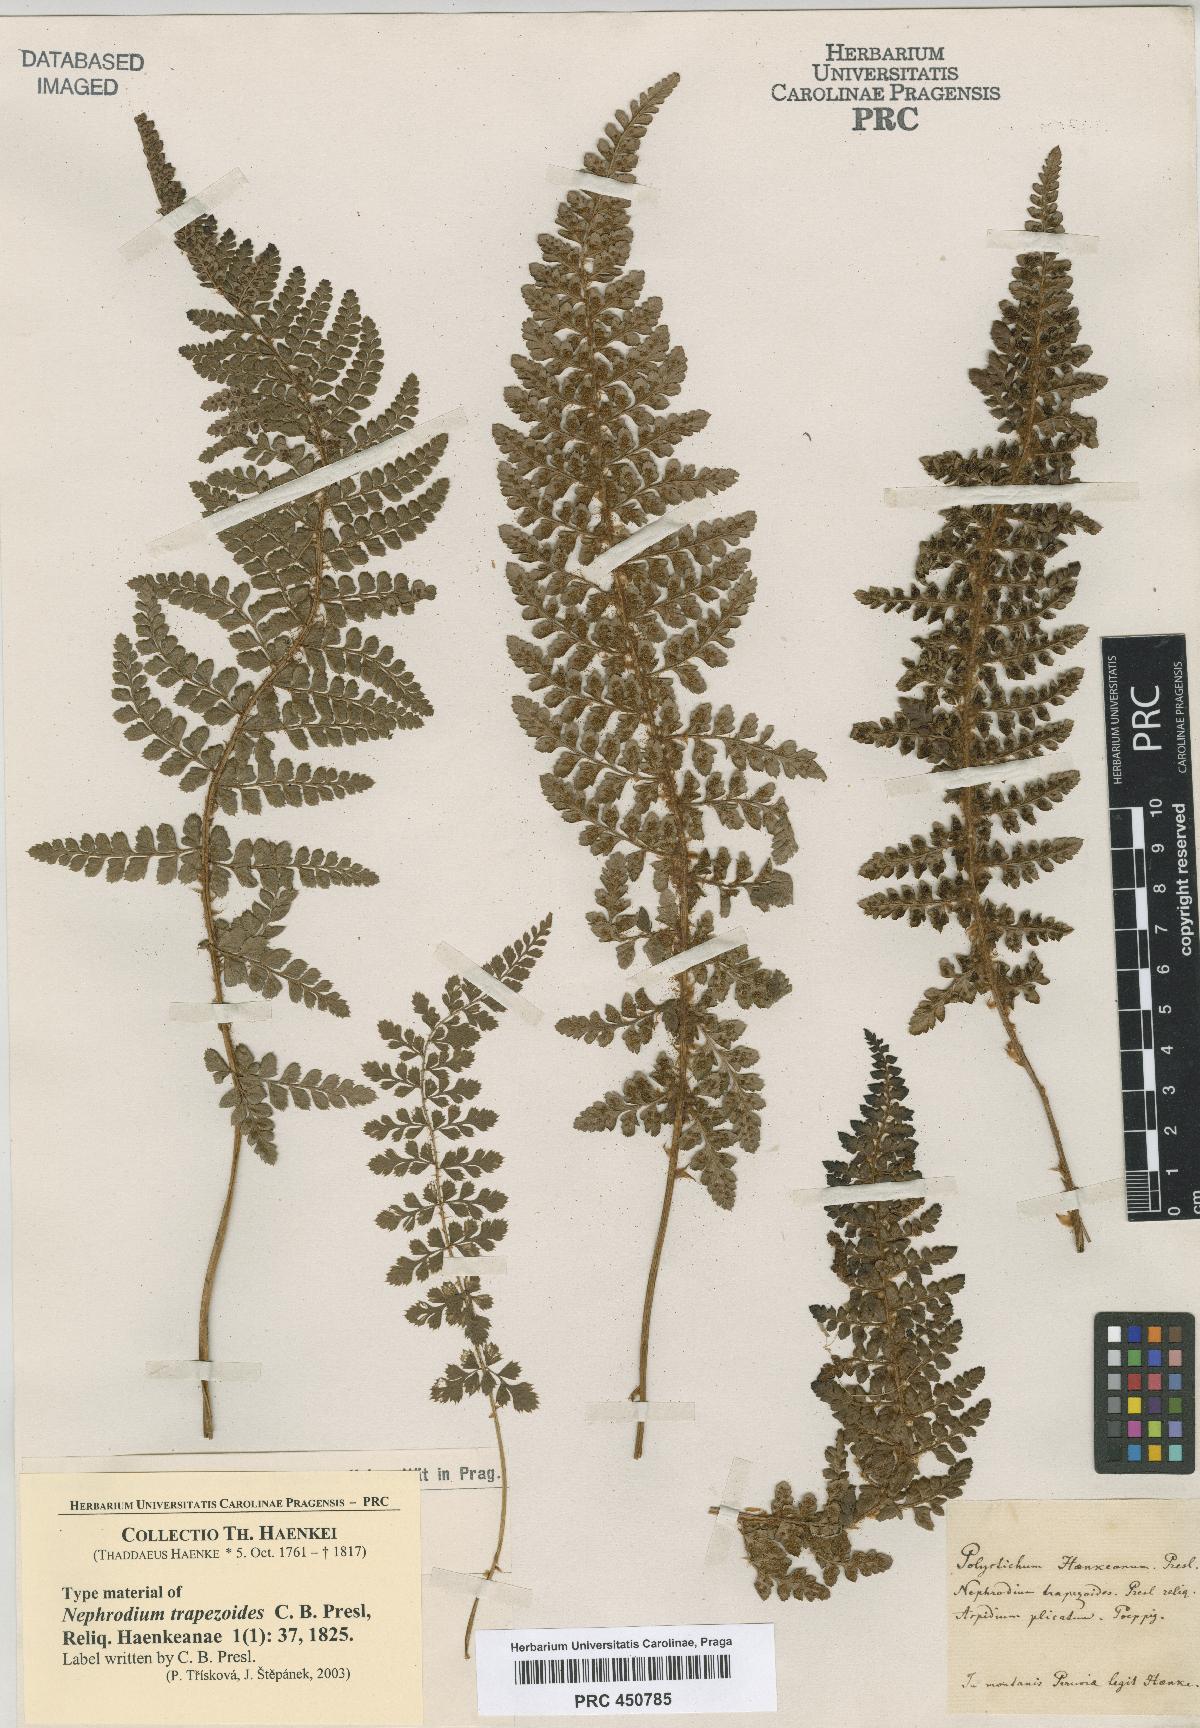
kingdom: Plantae
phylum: Tracheophyta
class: Polypodiopsida
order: Polypodiales
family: Dryopteridaceae
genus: Polystichum
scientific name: Polystichum polyphyllum
